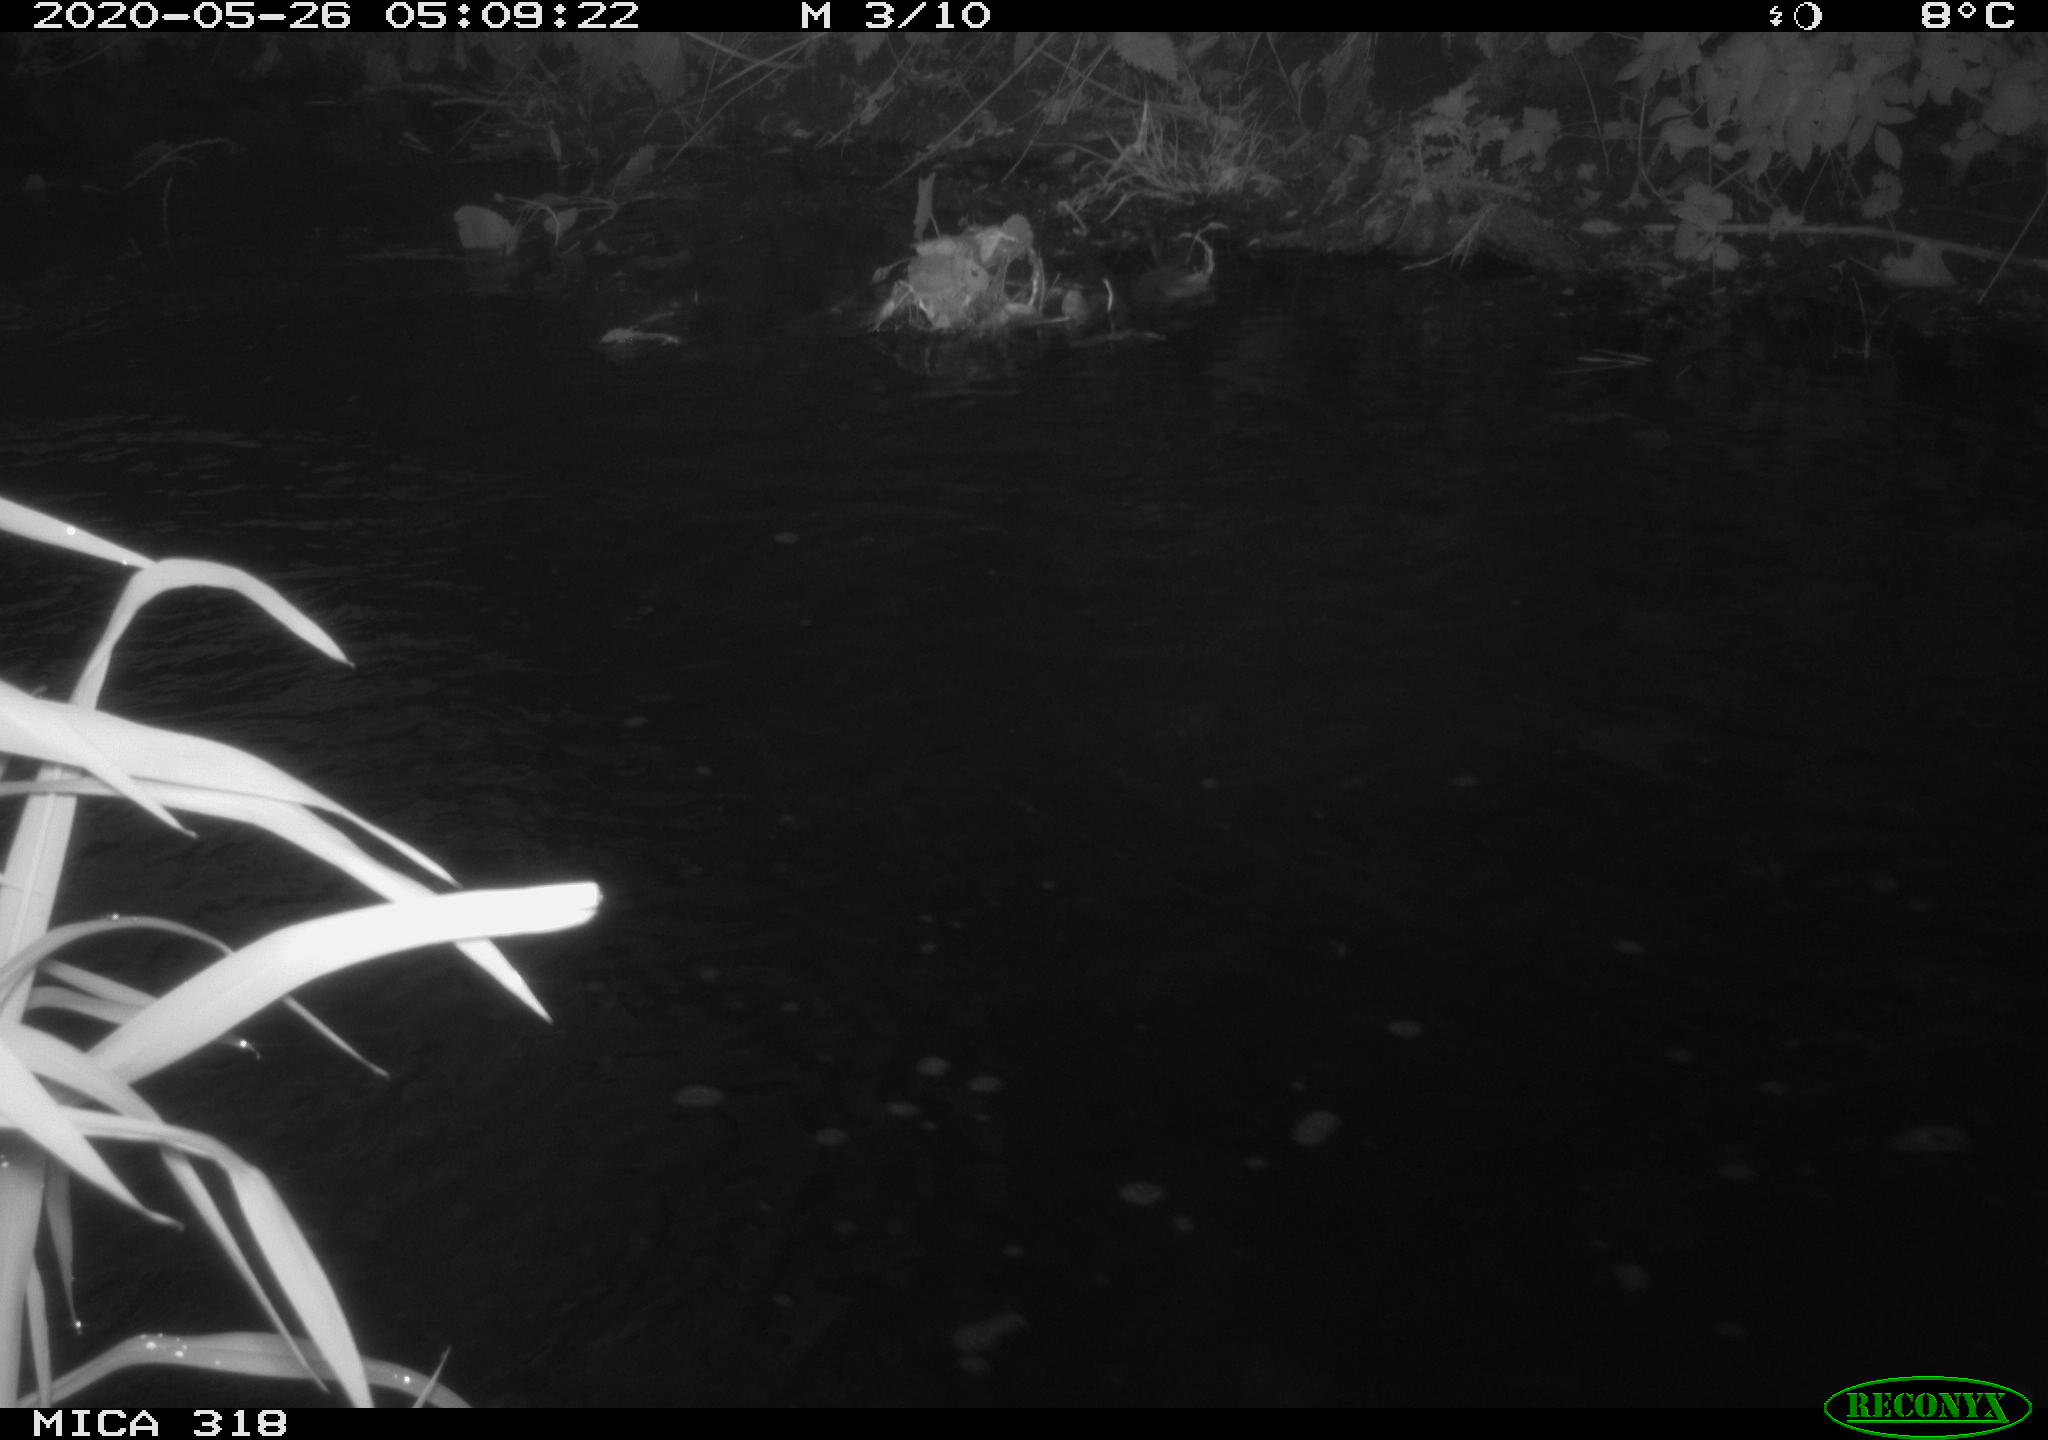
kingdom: Animalia
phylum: Chordata
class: Aves
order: Gruiformes
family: Rallidae
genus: Gallinula
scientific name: Gallinula chloropus
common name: Common moorhen
